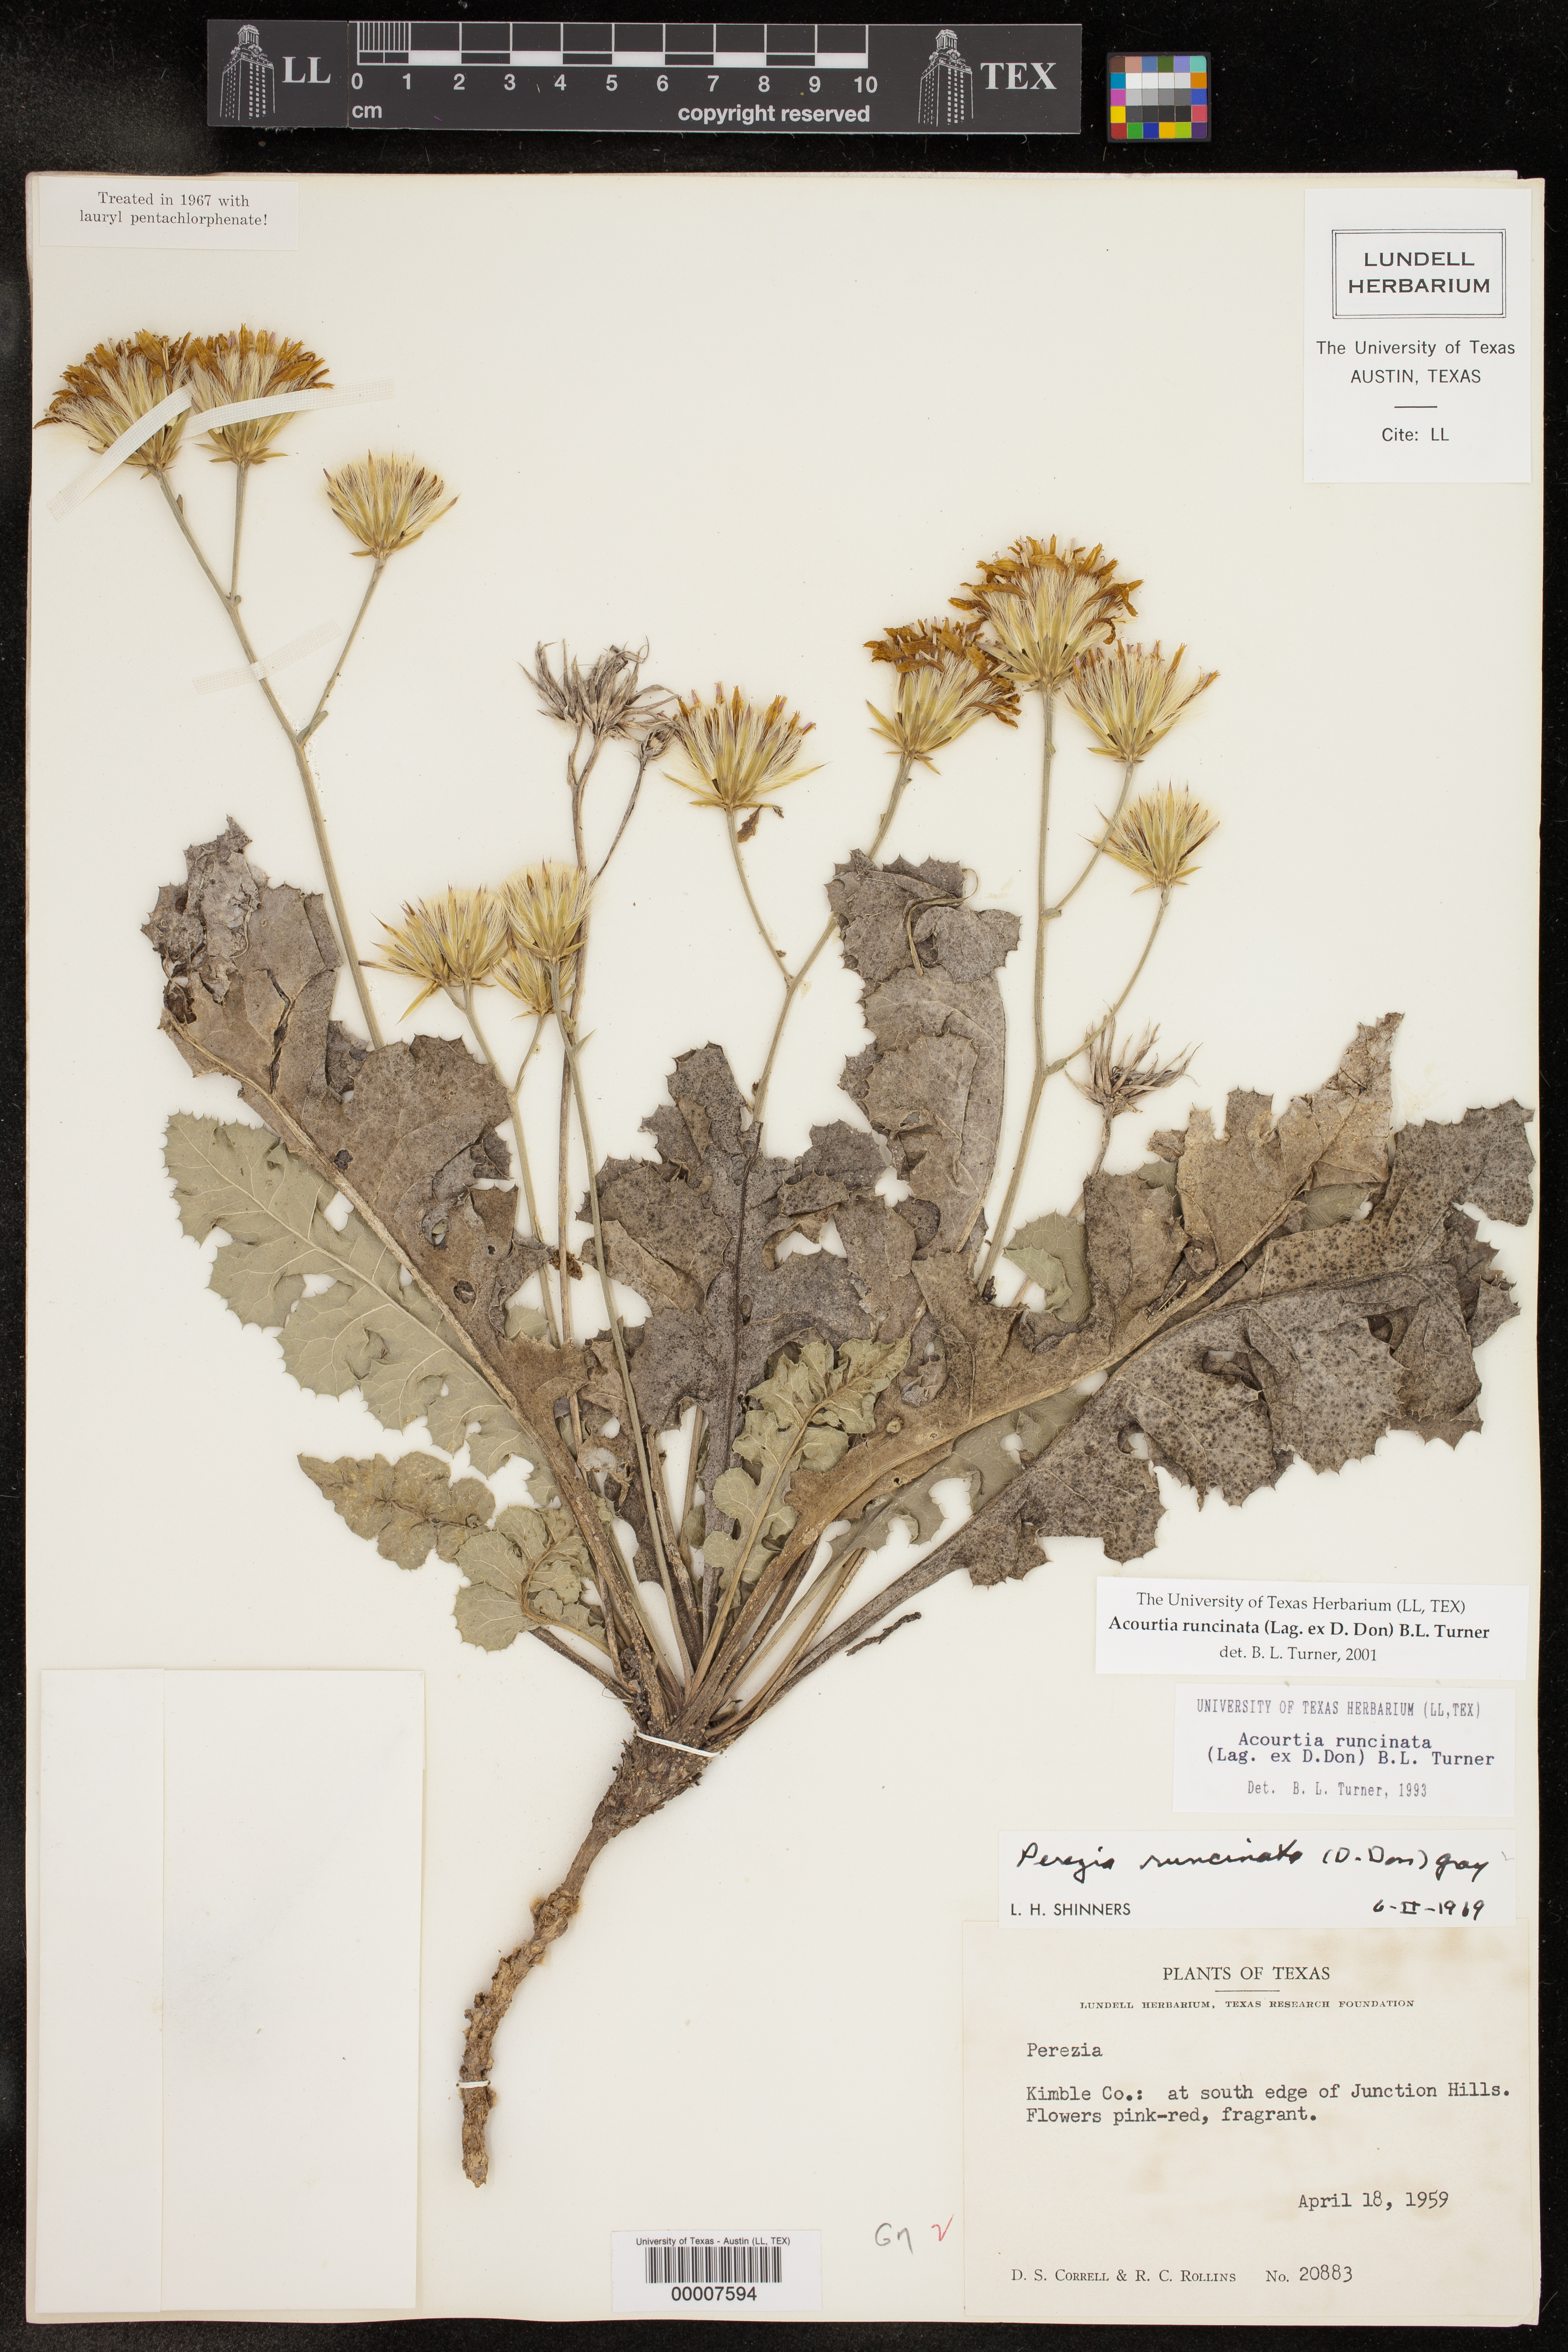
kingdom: Plantae
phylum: Tracheophyta
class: Magnoliopsida
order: Asterales
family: Asteraceae
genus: Acourtia
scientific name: Acourtia runcinata
